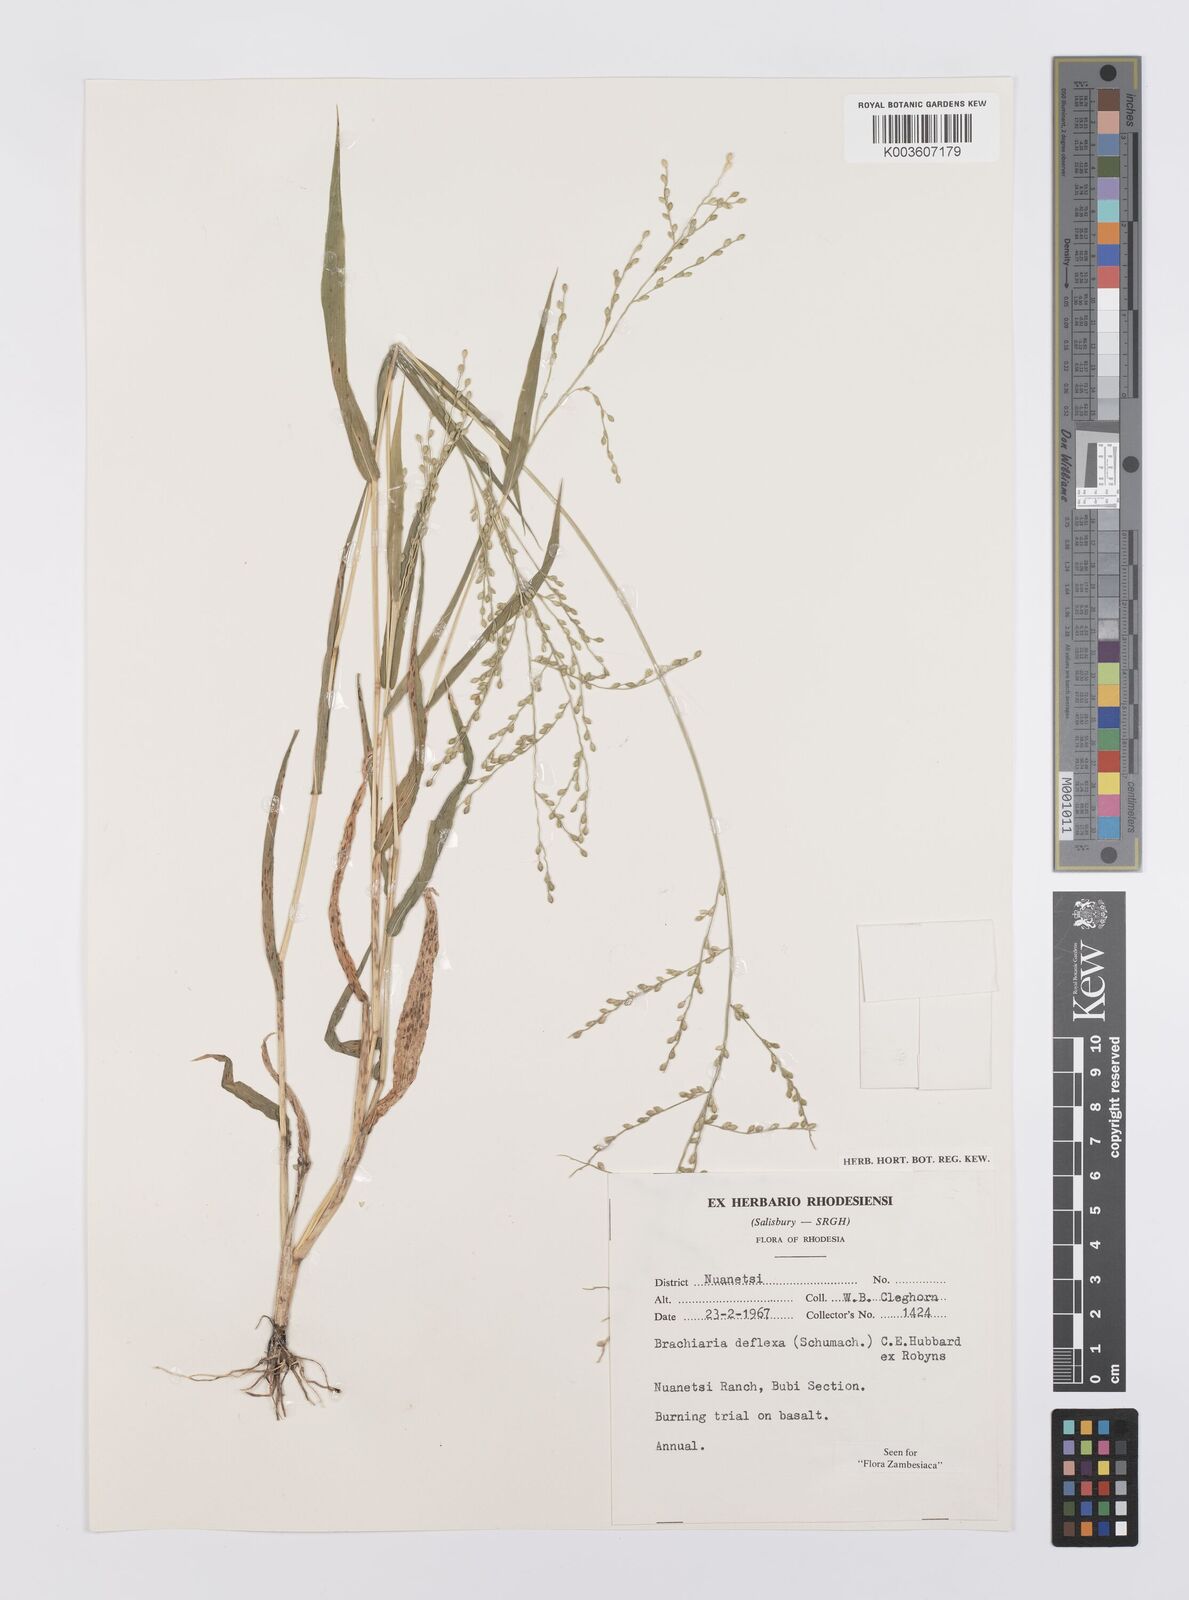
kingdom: Plantae
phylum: Tracheophyta
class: Liliopsida
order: Poales
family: Poaceae
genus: Urochloa
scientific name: Urochloa deflexa
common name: Guinea millet
